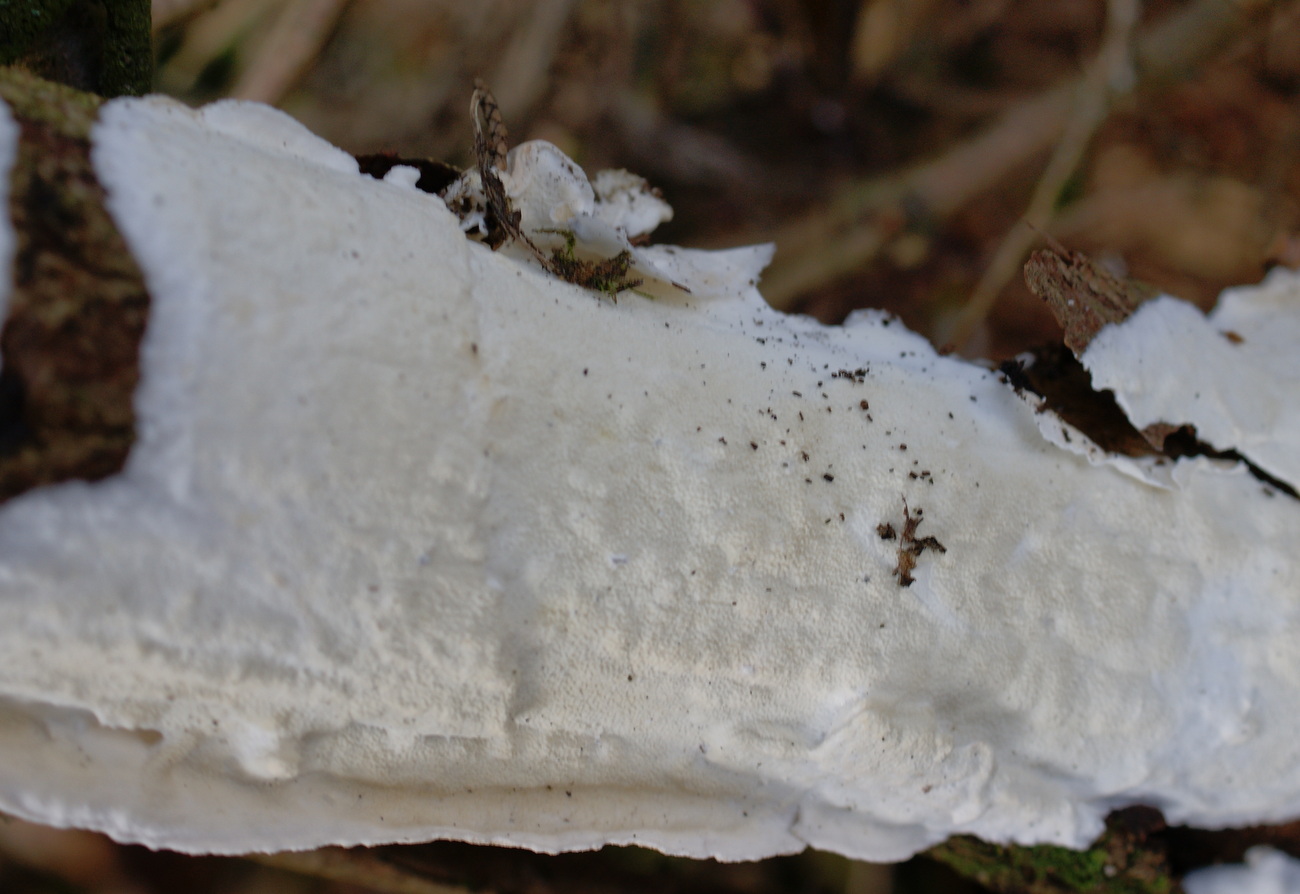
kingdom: Fungi
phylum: Basidiomycota
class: Agaricomycetes
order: Polyporales
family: Irpicaceae
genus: Byssomerulius
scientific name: Byssomerulius corium
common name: læder-åresvamp
